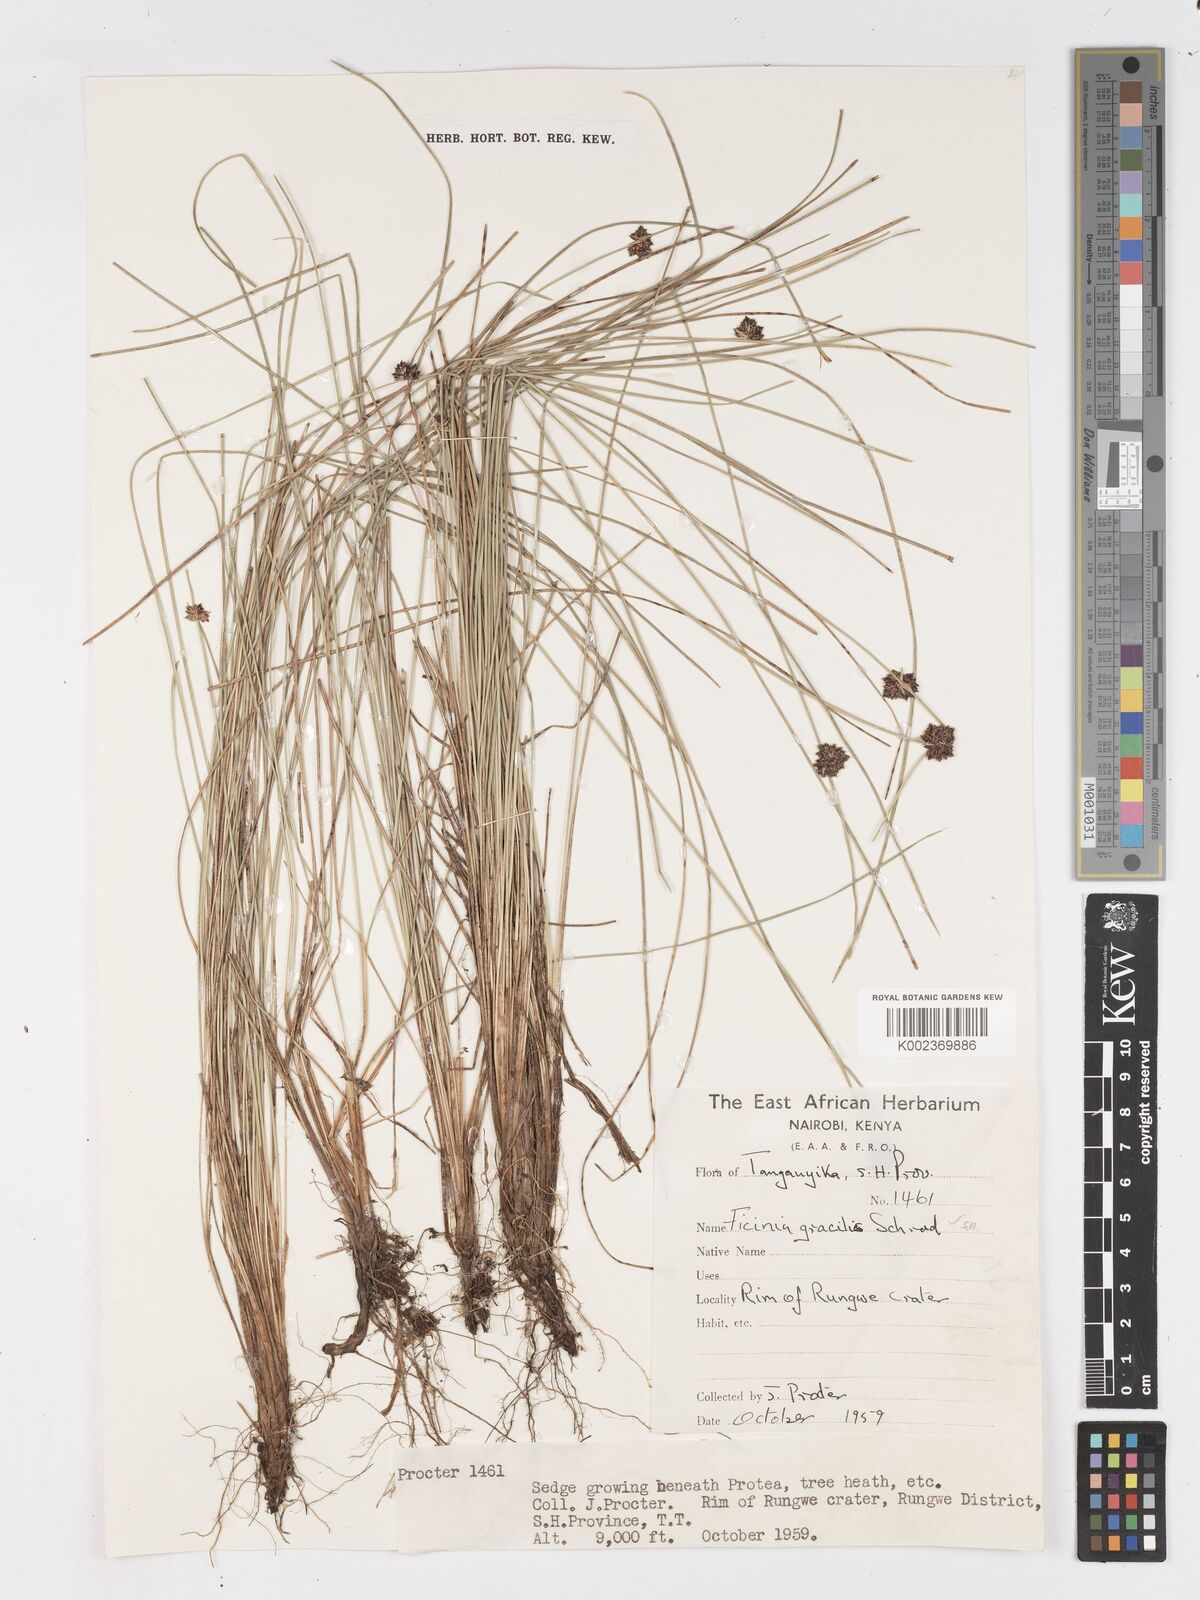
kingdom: Plantae
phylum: Tracheophyta
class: Liliopsida
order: Poales
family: Cyperaceae
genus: Ficinia
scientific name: Ficinia gracilis
